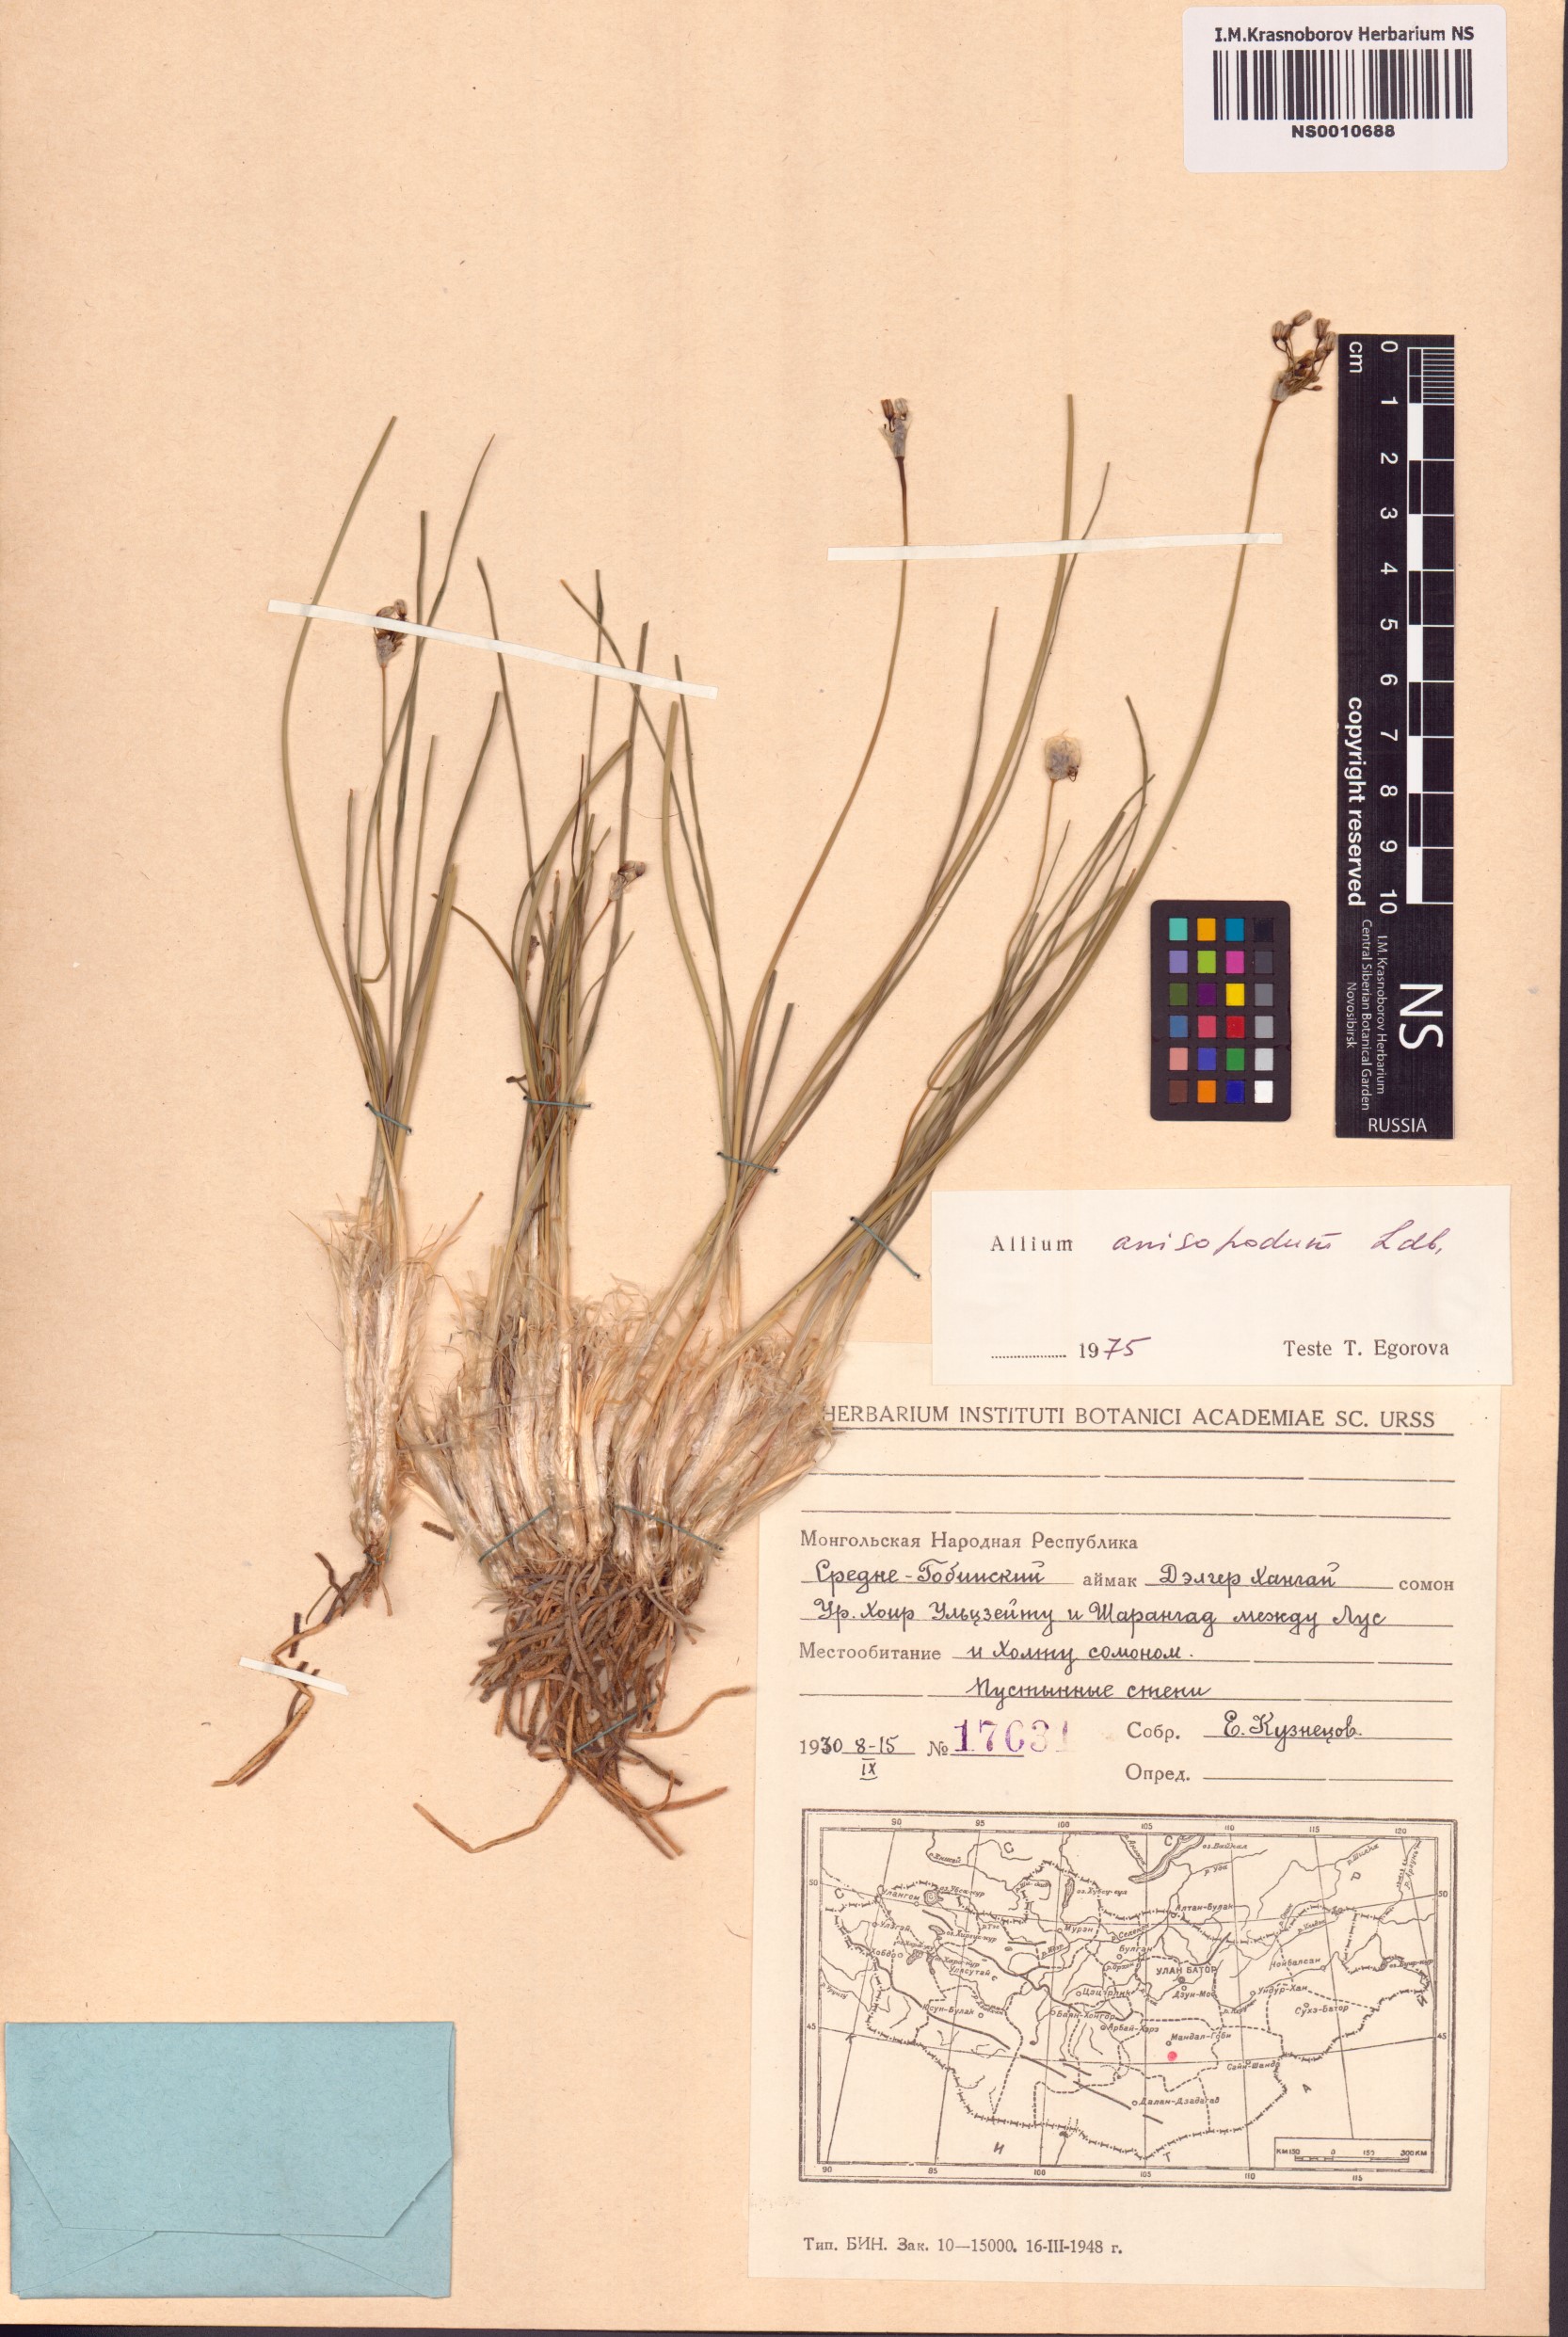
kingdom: Plantae
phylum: Tracheophyta
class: Liliopsida
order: Asparagales
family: Amaryllidaceae
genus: Allium
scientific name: Allium anisopodium
